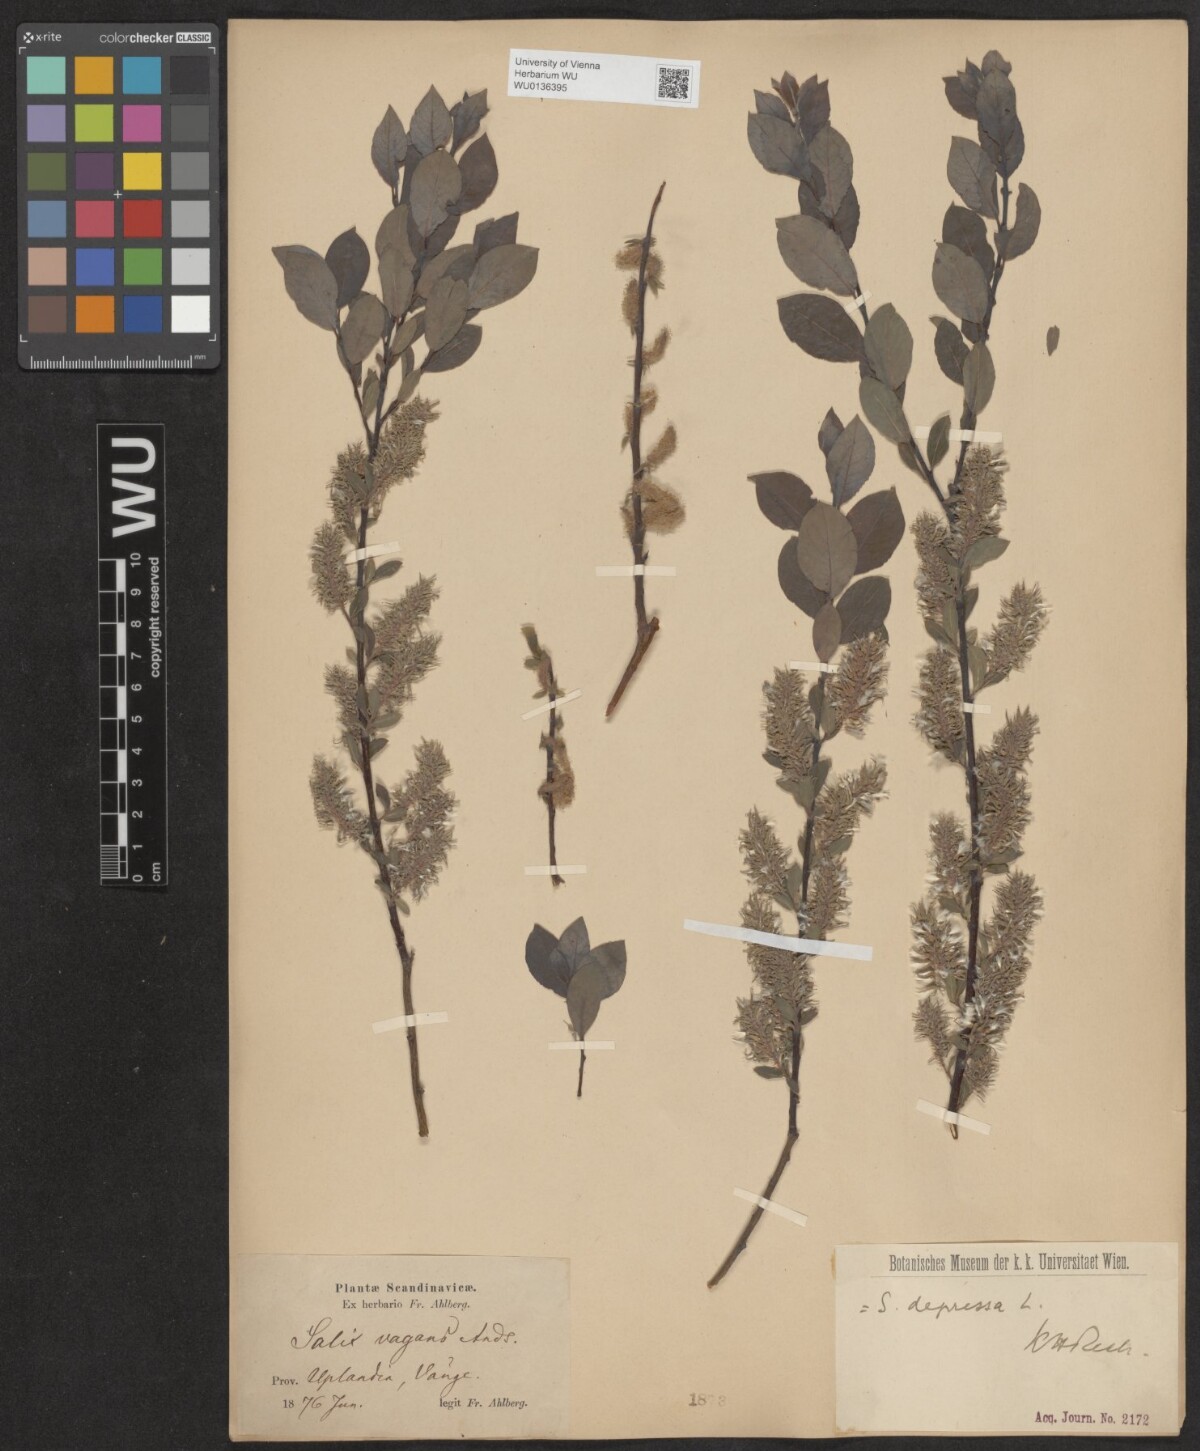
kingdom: Plantae
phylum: Tracheophyta
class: Magnoliopsida
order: Malpighiales
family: Salicaceae
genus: Salix
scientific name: Salix lanata
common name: Woolly willow
